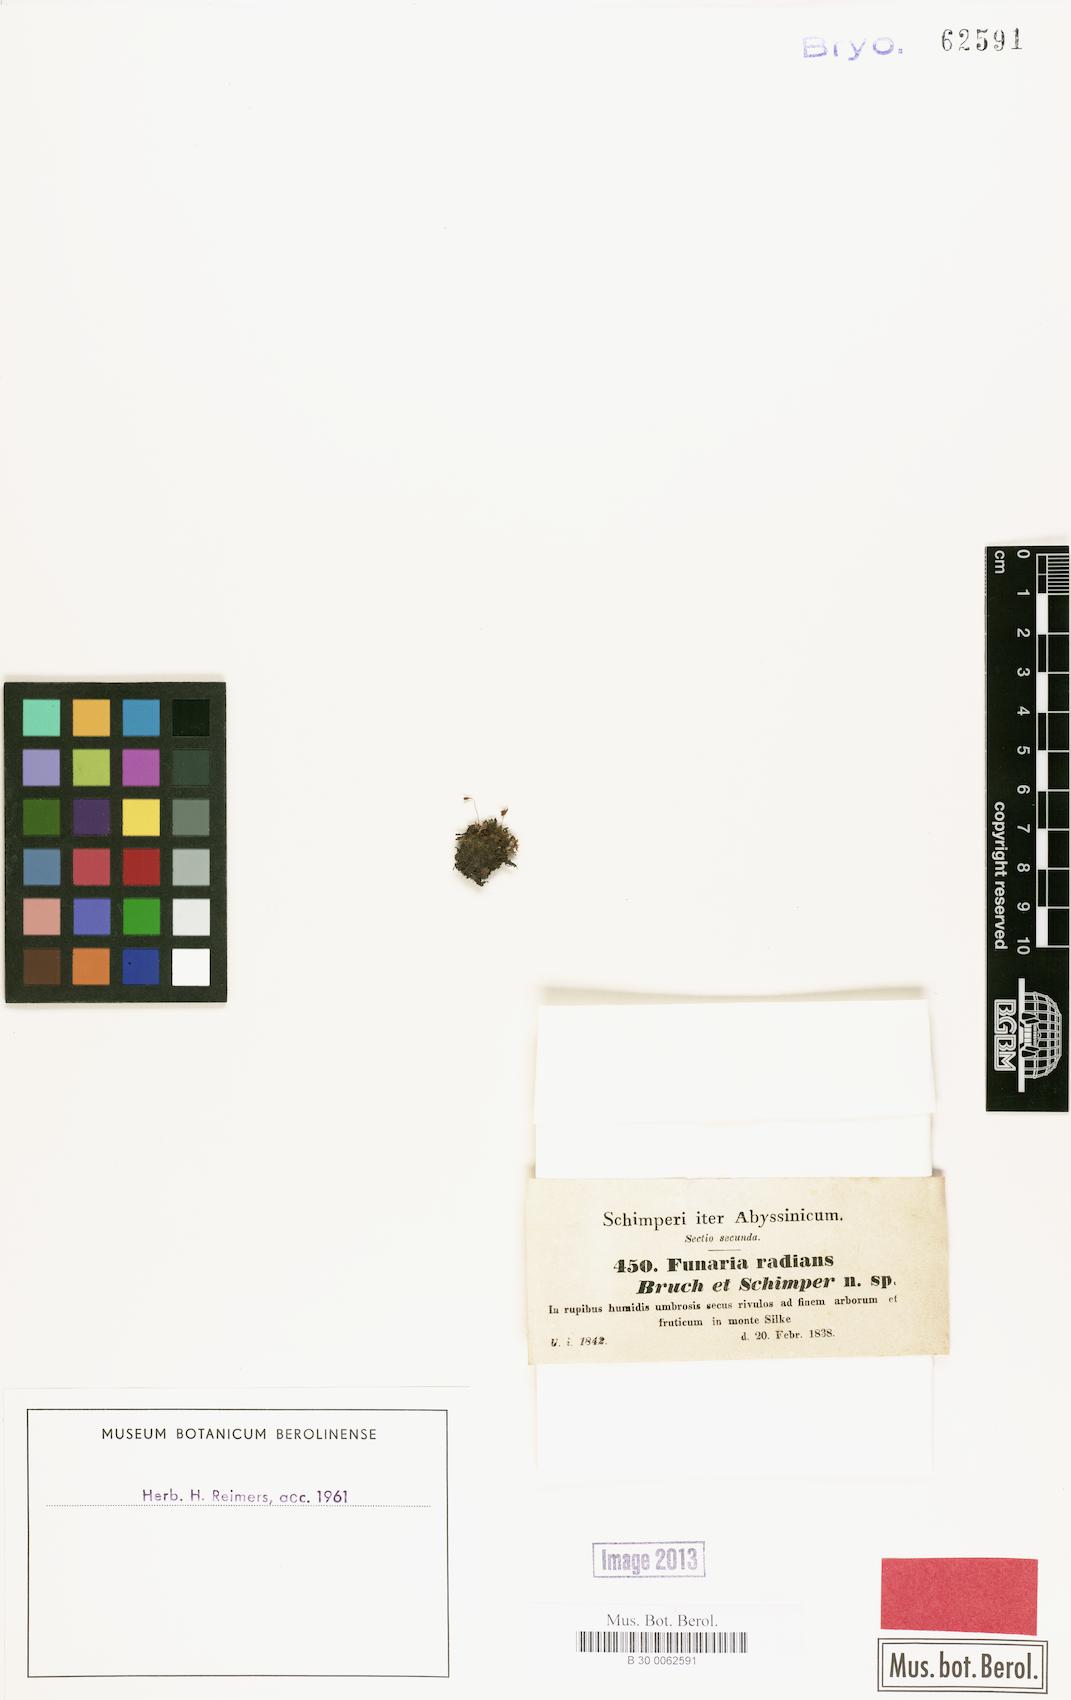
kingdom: Plantae
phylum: Bryophyta
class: Bryopsida
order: Funariales
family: Funariaceae
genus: Entosthodon
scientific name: Entosthodon radians
